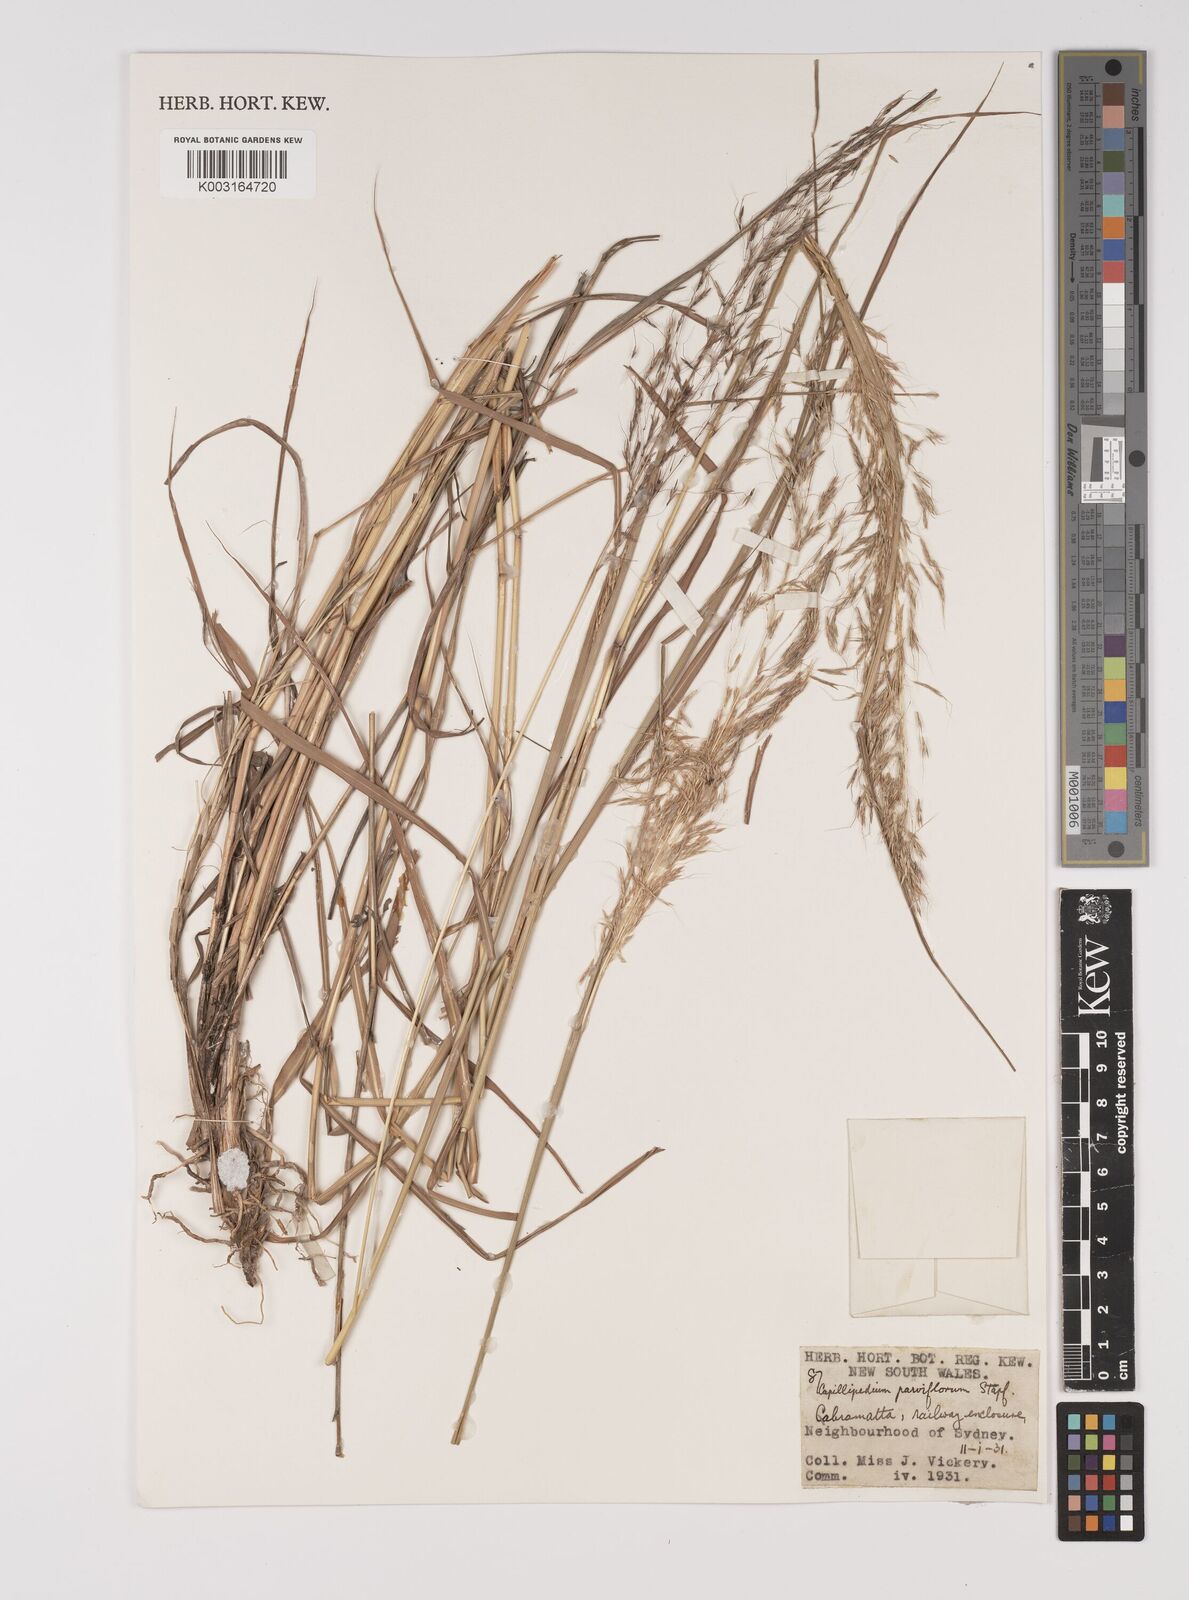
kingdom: Plantae
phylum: Tracheophyta
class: Liliopsida
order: Poales
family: Poaceae
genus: Capillipedium
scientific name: Capillipedium parviflorum
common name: Golden-beard
